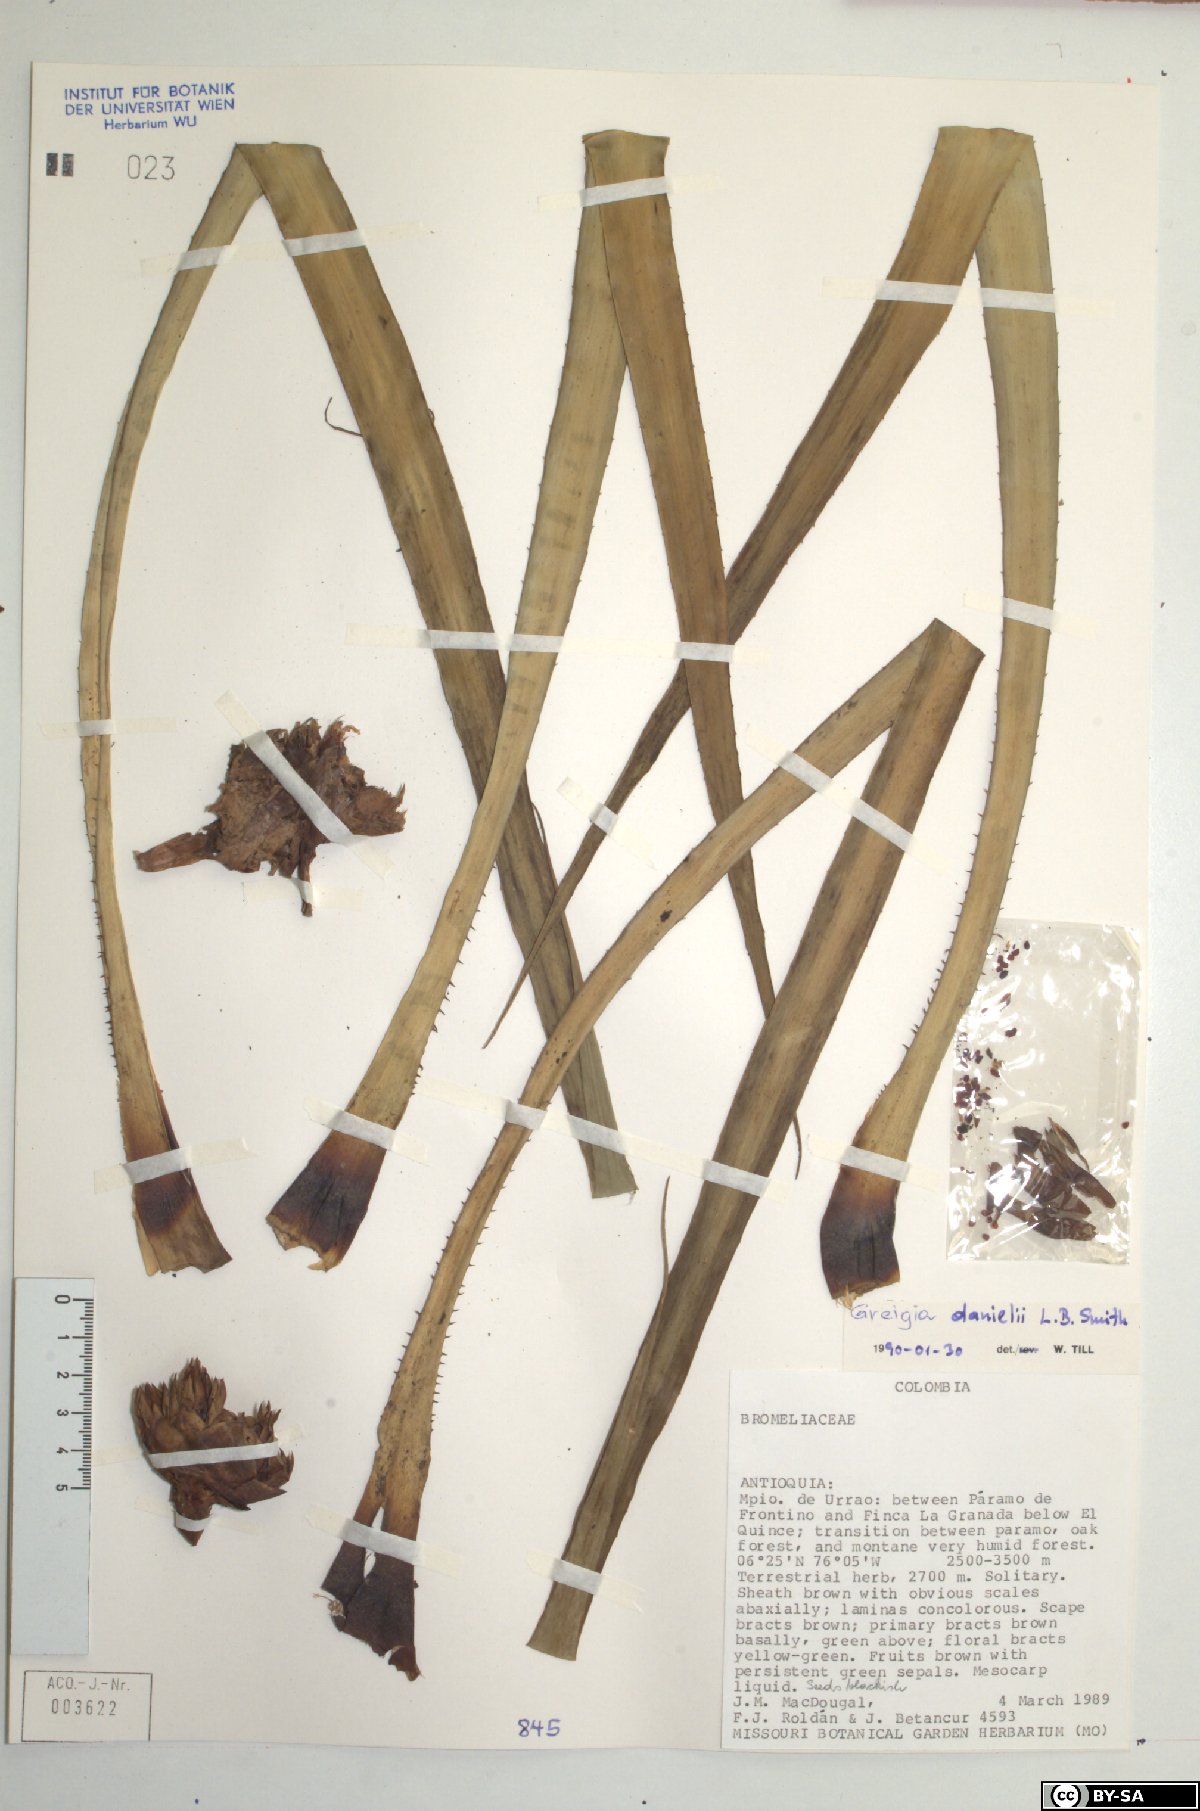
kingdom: Plantae
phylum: Tracheophyta
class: Liliopsida
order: Poales
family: Bromeliaceae
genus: Greigia
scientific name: Greigia danielii
